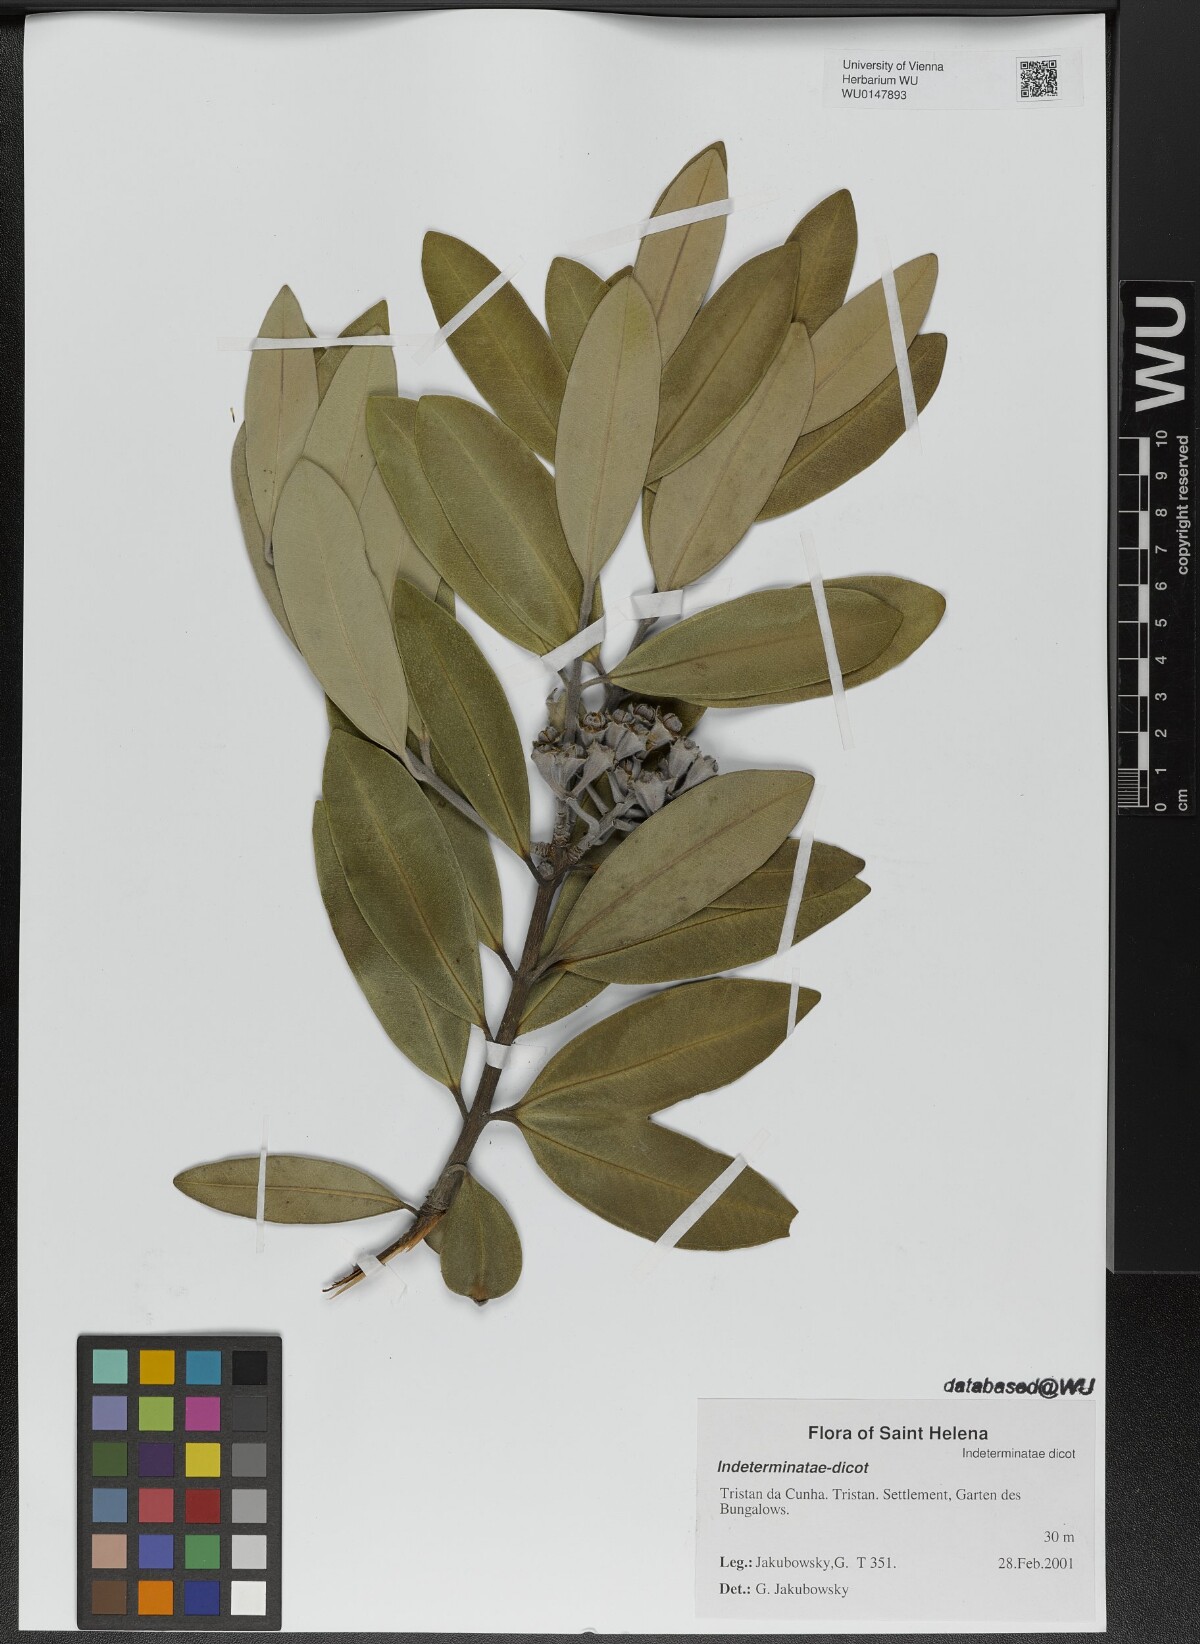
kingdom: Plantae
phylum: Tracheophyta
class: Magnoliopsida
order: Myrtales
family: Myrtaceae
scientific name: Myrtaceae
